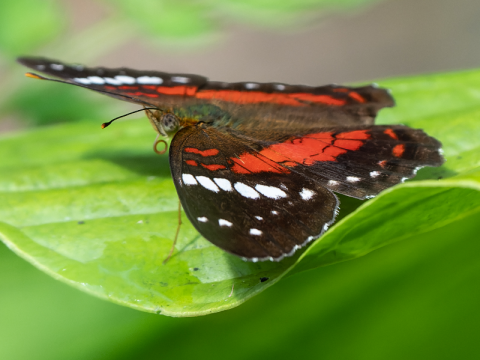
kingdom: Animalia
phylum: Arthropoda
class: Insecta
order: Lepidoptera
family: Nymphalidae
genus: Anartia
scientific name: Anartia amathea
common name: Red Peacock
